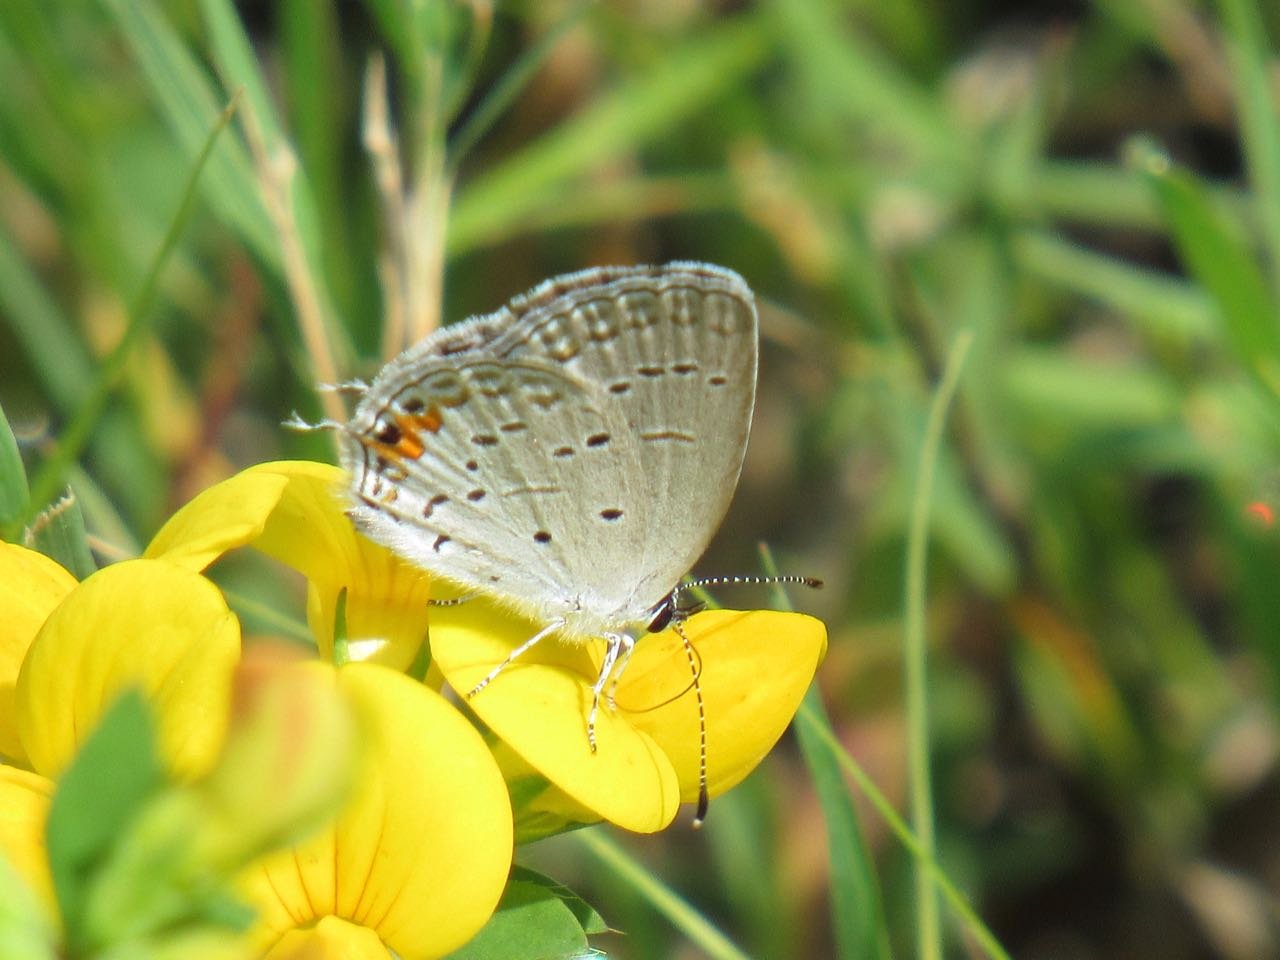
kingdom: Animalia
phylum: Arthropoda
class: Insecta
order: Lepidoptera
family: Lycaenidae
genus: Elkalyce
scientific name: Elkalyce comyntas
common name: Eastern Tailed-Blue
